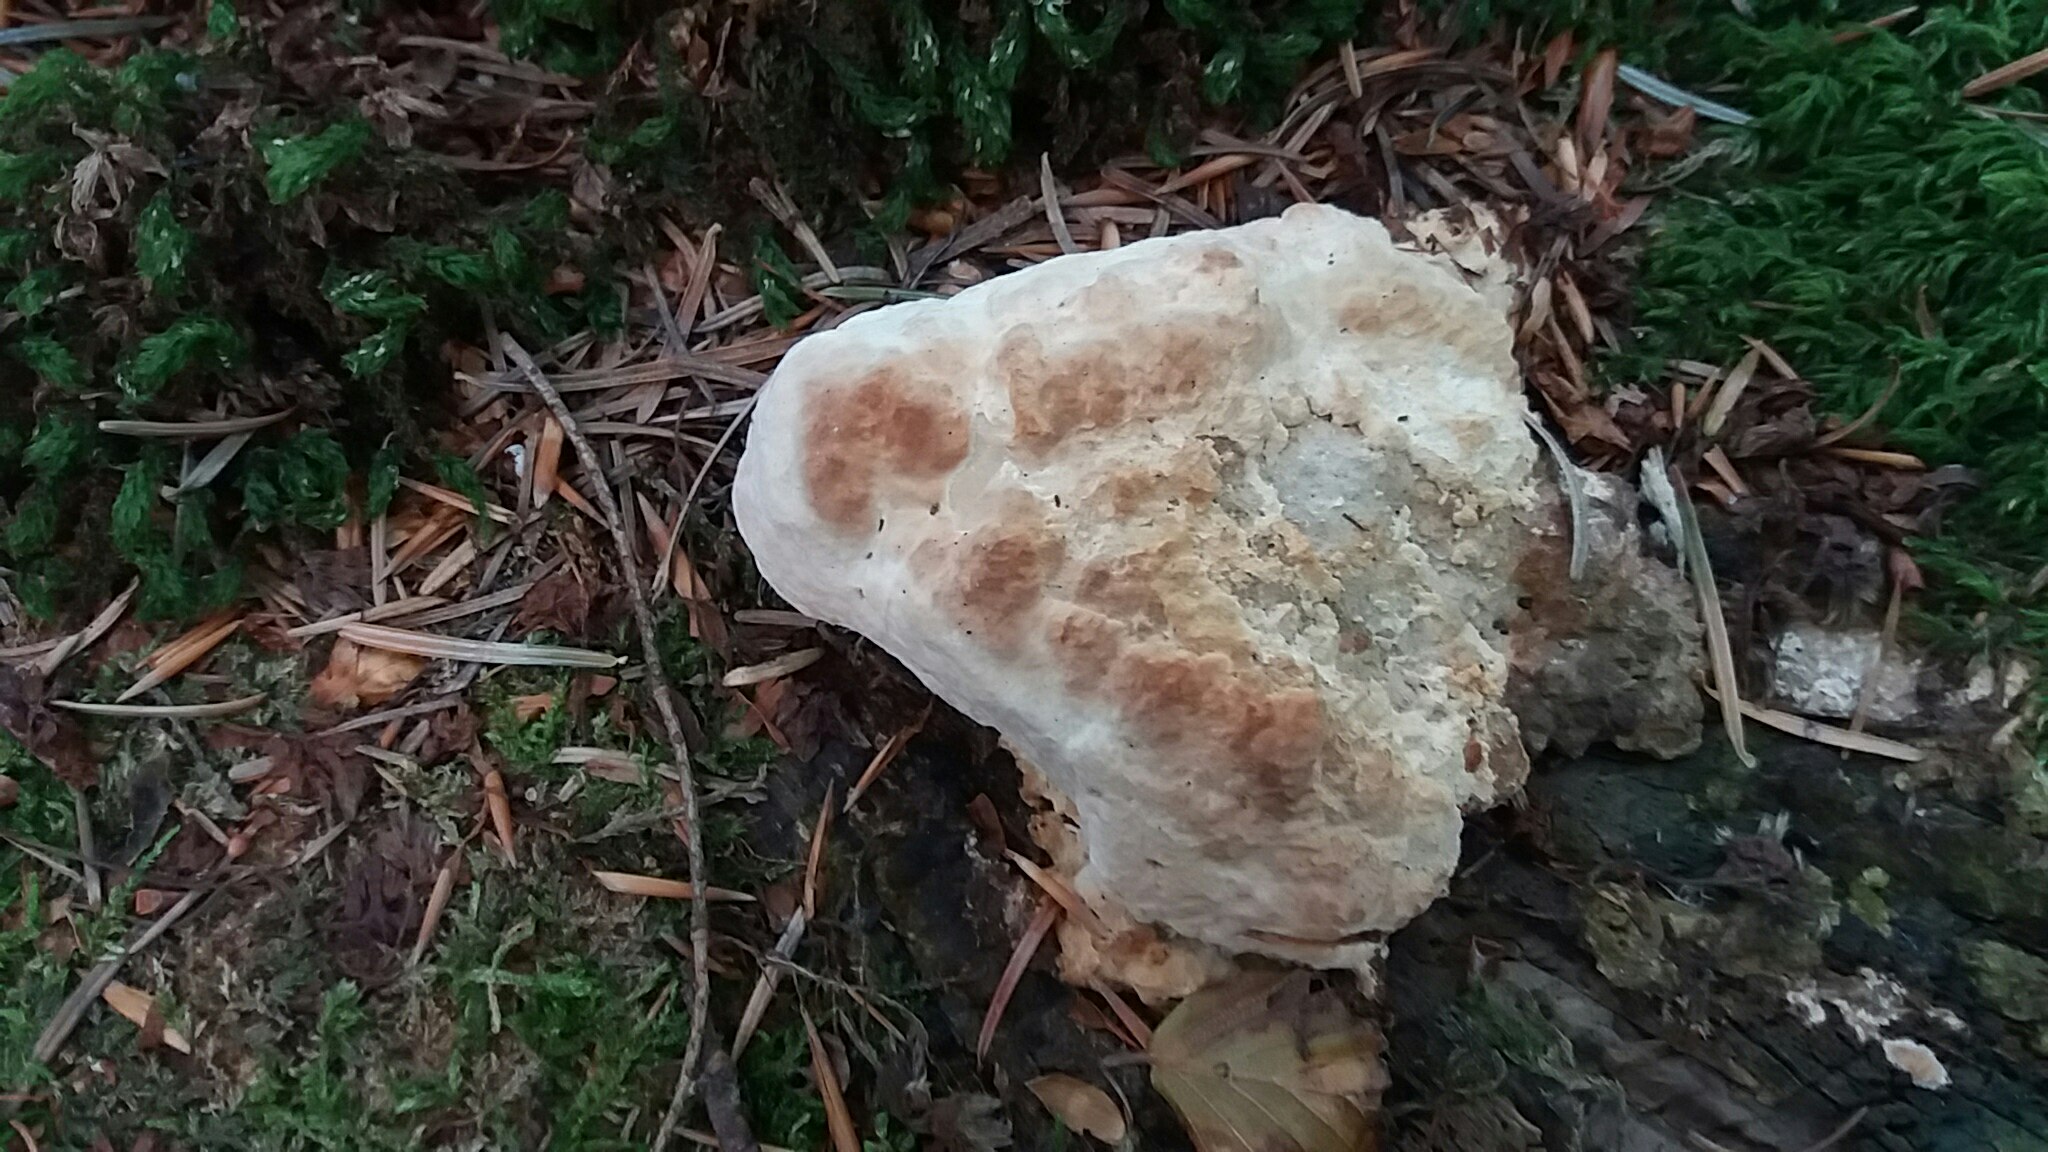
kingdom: Fungi
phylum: Basidiomycota
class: Agaricomycetes
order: Polyporales
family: Fomitopsidaceae
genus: Fomitopsis
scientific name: Fomitopsis pinicola
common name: randbæltet hovporesvamp
